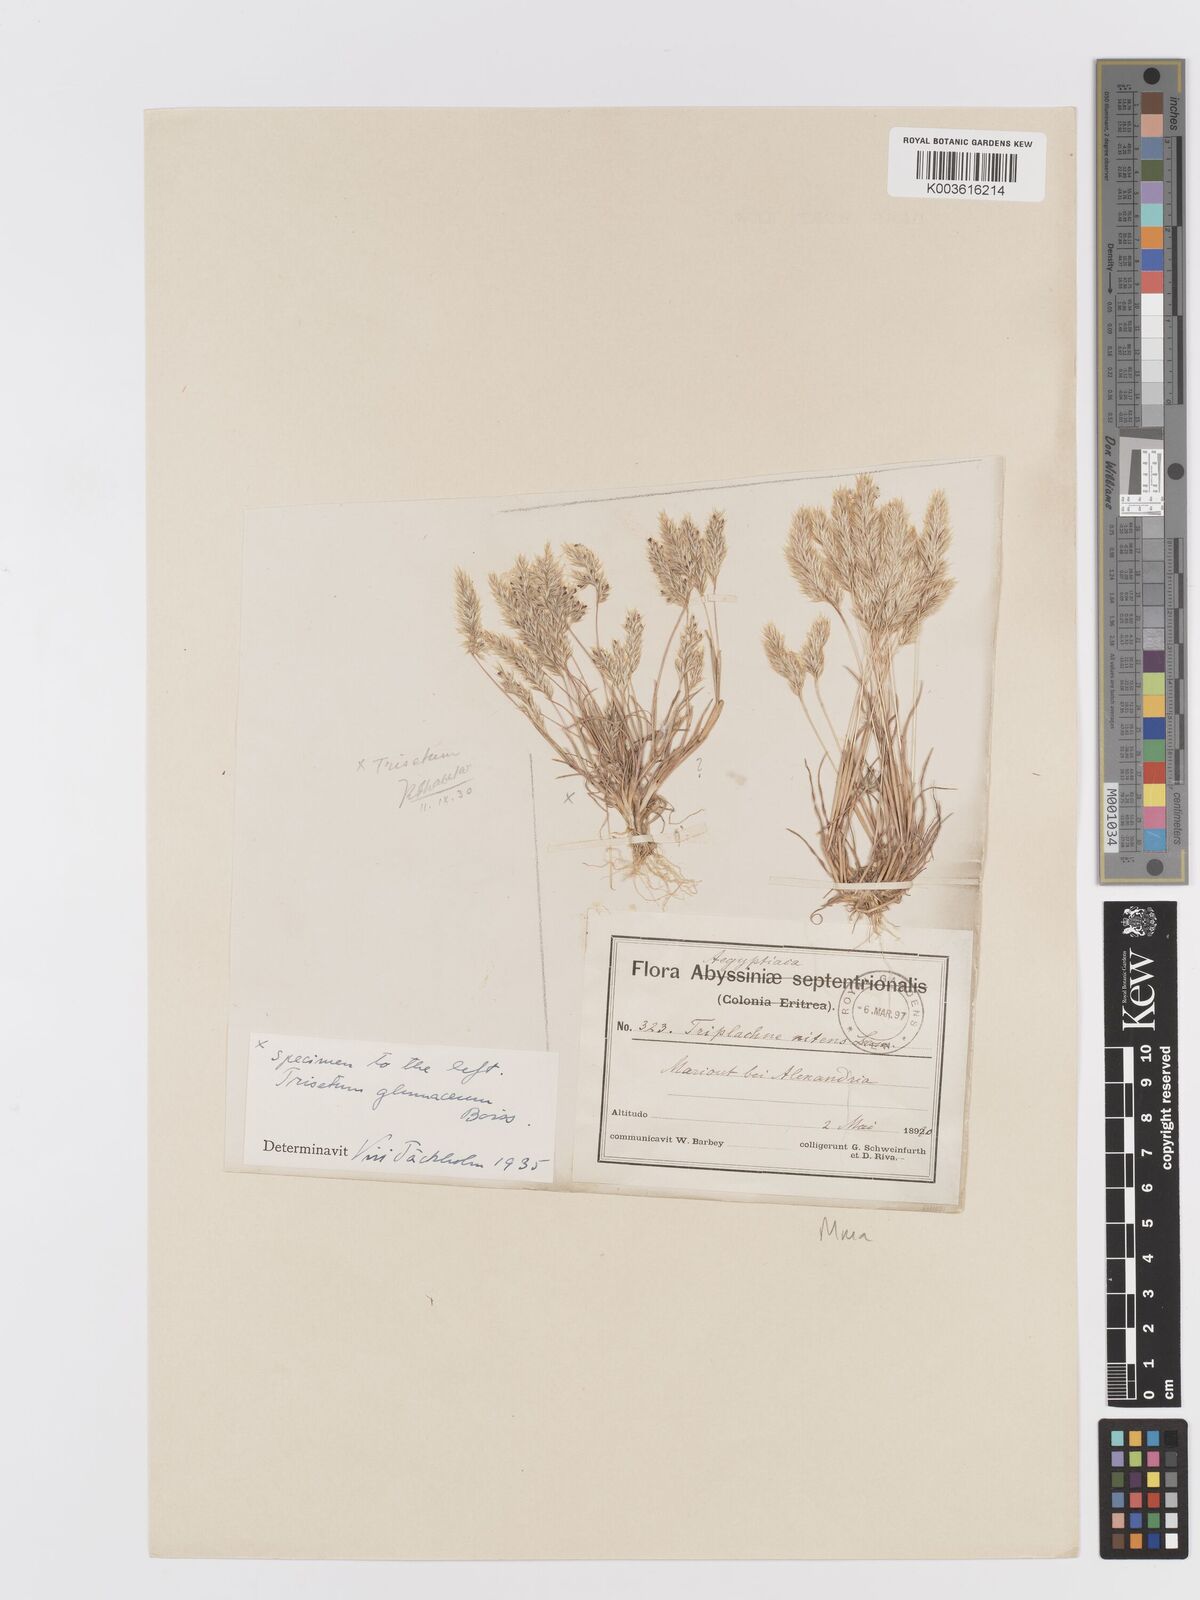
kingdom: Plantae
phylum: Tracheophyta
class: Liliopsida
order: Poales
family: Poaceae
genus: Trisetaria
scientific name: Trisetaria glumacea
